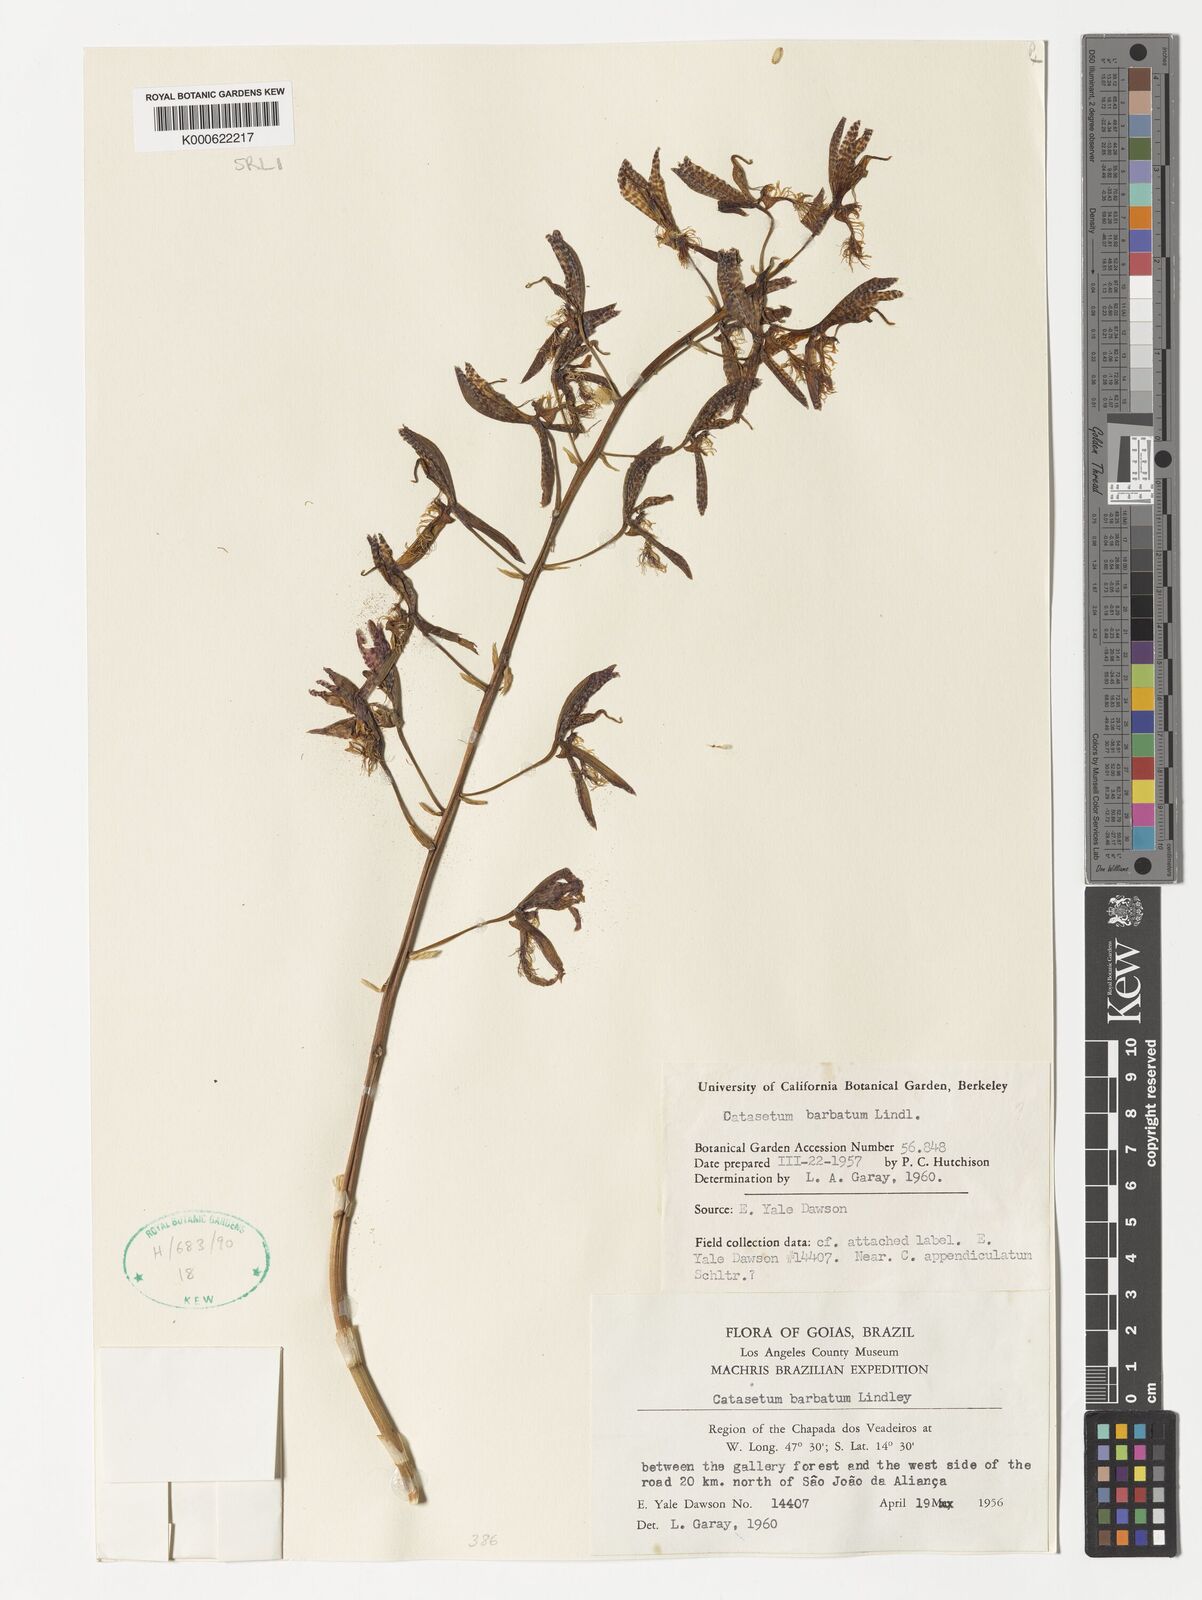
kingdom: Plantae
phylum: Tracheophyta
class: Liliopsida
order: Asparagales
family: Orchidaceae
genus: Catasetum
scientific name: Catasetum barbatum
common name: Bearded catasetum
